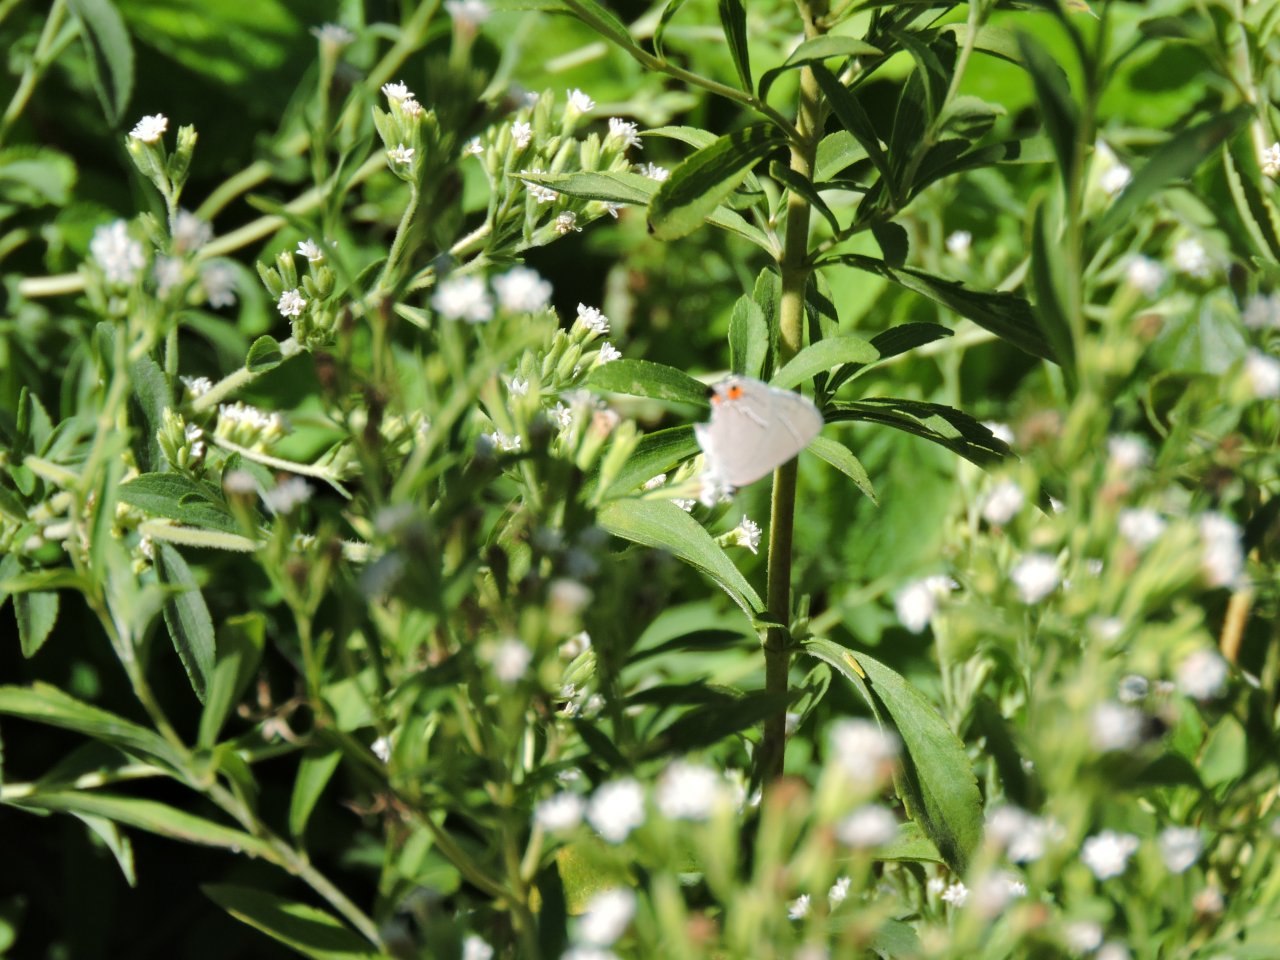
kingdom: Animalia
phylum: Arthropoda
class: Insecta
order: Lepidoptera
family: Lycaenidae
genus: Strymon
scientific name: Strymon melinus
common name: Gray Hairstreak
